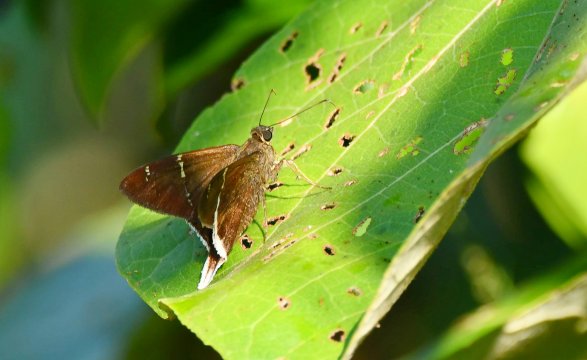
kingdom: Animalia
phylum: Arthropoda
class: Insecta
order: Lepidoptera
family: Hesperiidae
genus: Achalarus
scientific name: Achalarus
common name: White-tailed Longtail
